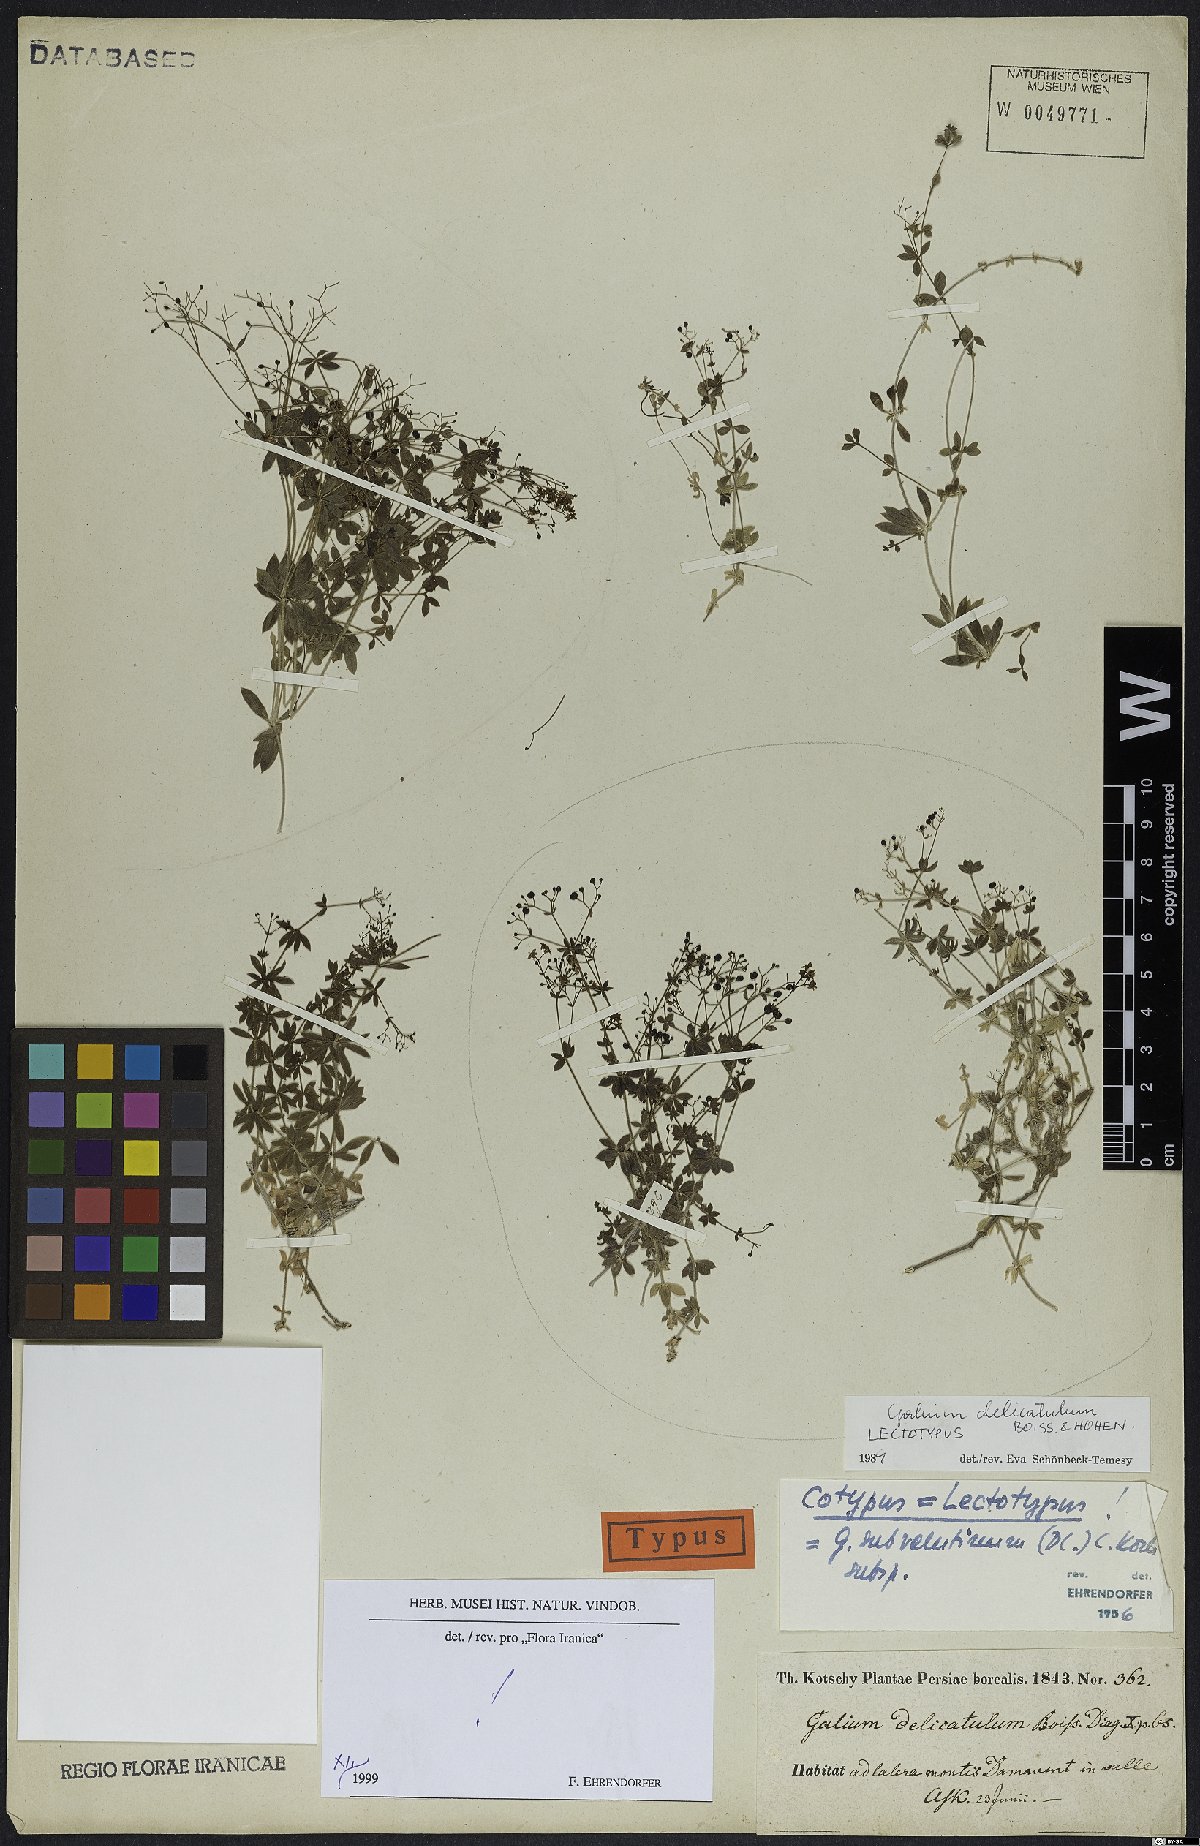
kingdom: Plantae
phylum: Tracheophyta
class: Magnoliopsida
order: Gentianales
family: Rubiaceae
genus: Galium
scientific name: Galium delicatulum
